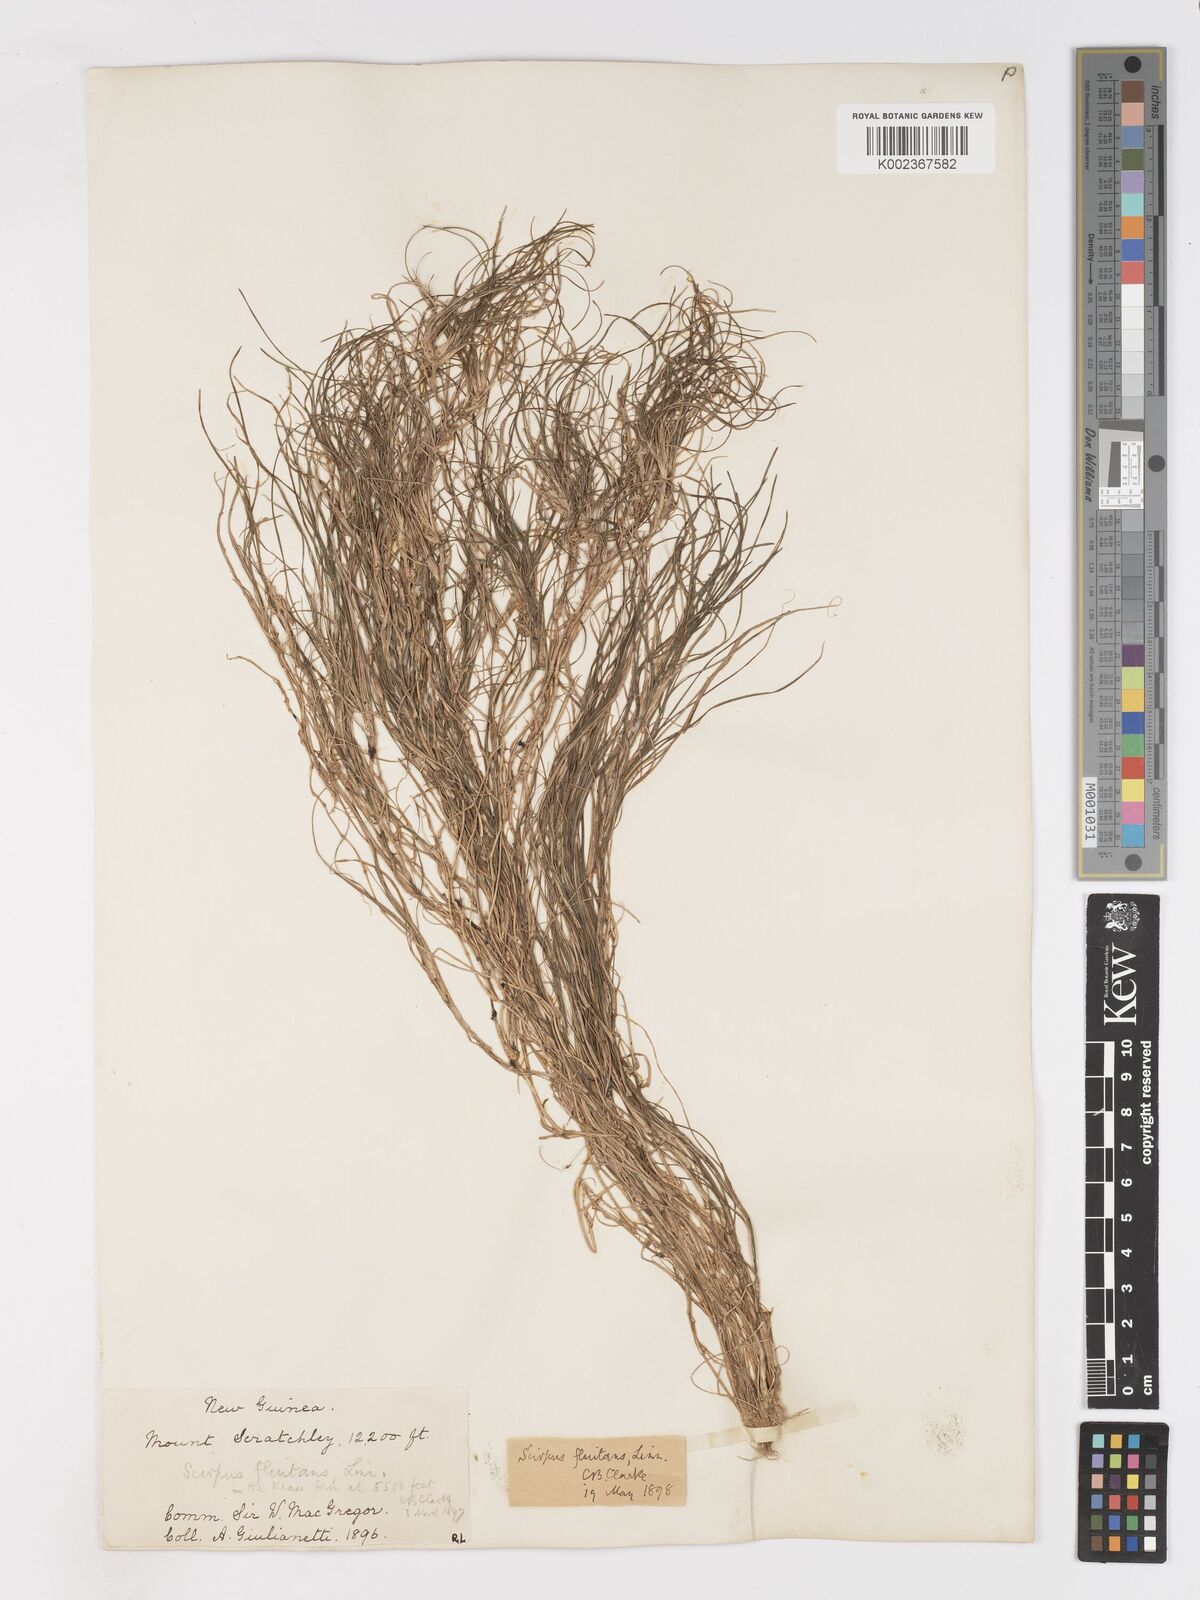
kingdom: Plantae
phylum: Tracheophyta
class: Liliopsida
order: Poales
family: Cyperaceae
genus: Isolepis
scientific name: Isolepis fluitans
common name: Floating club-rush
